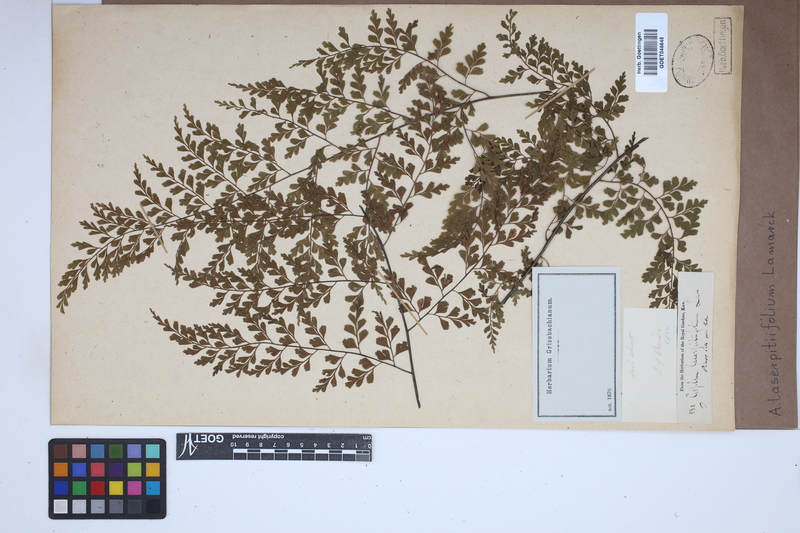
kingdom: Plantae
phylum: Tracheophyta
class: Polypodiopsida
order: Polypodiales
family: Aspleniaceae
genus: Asplenium
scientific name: Asplenium laserpitiifolium
